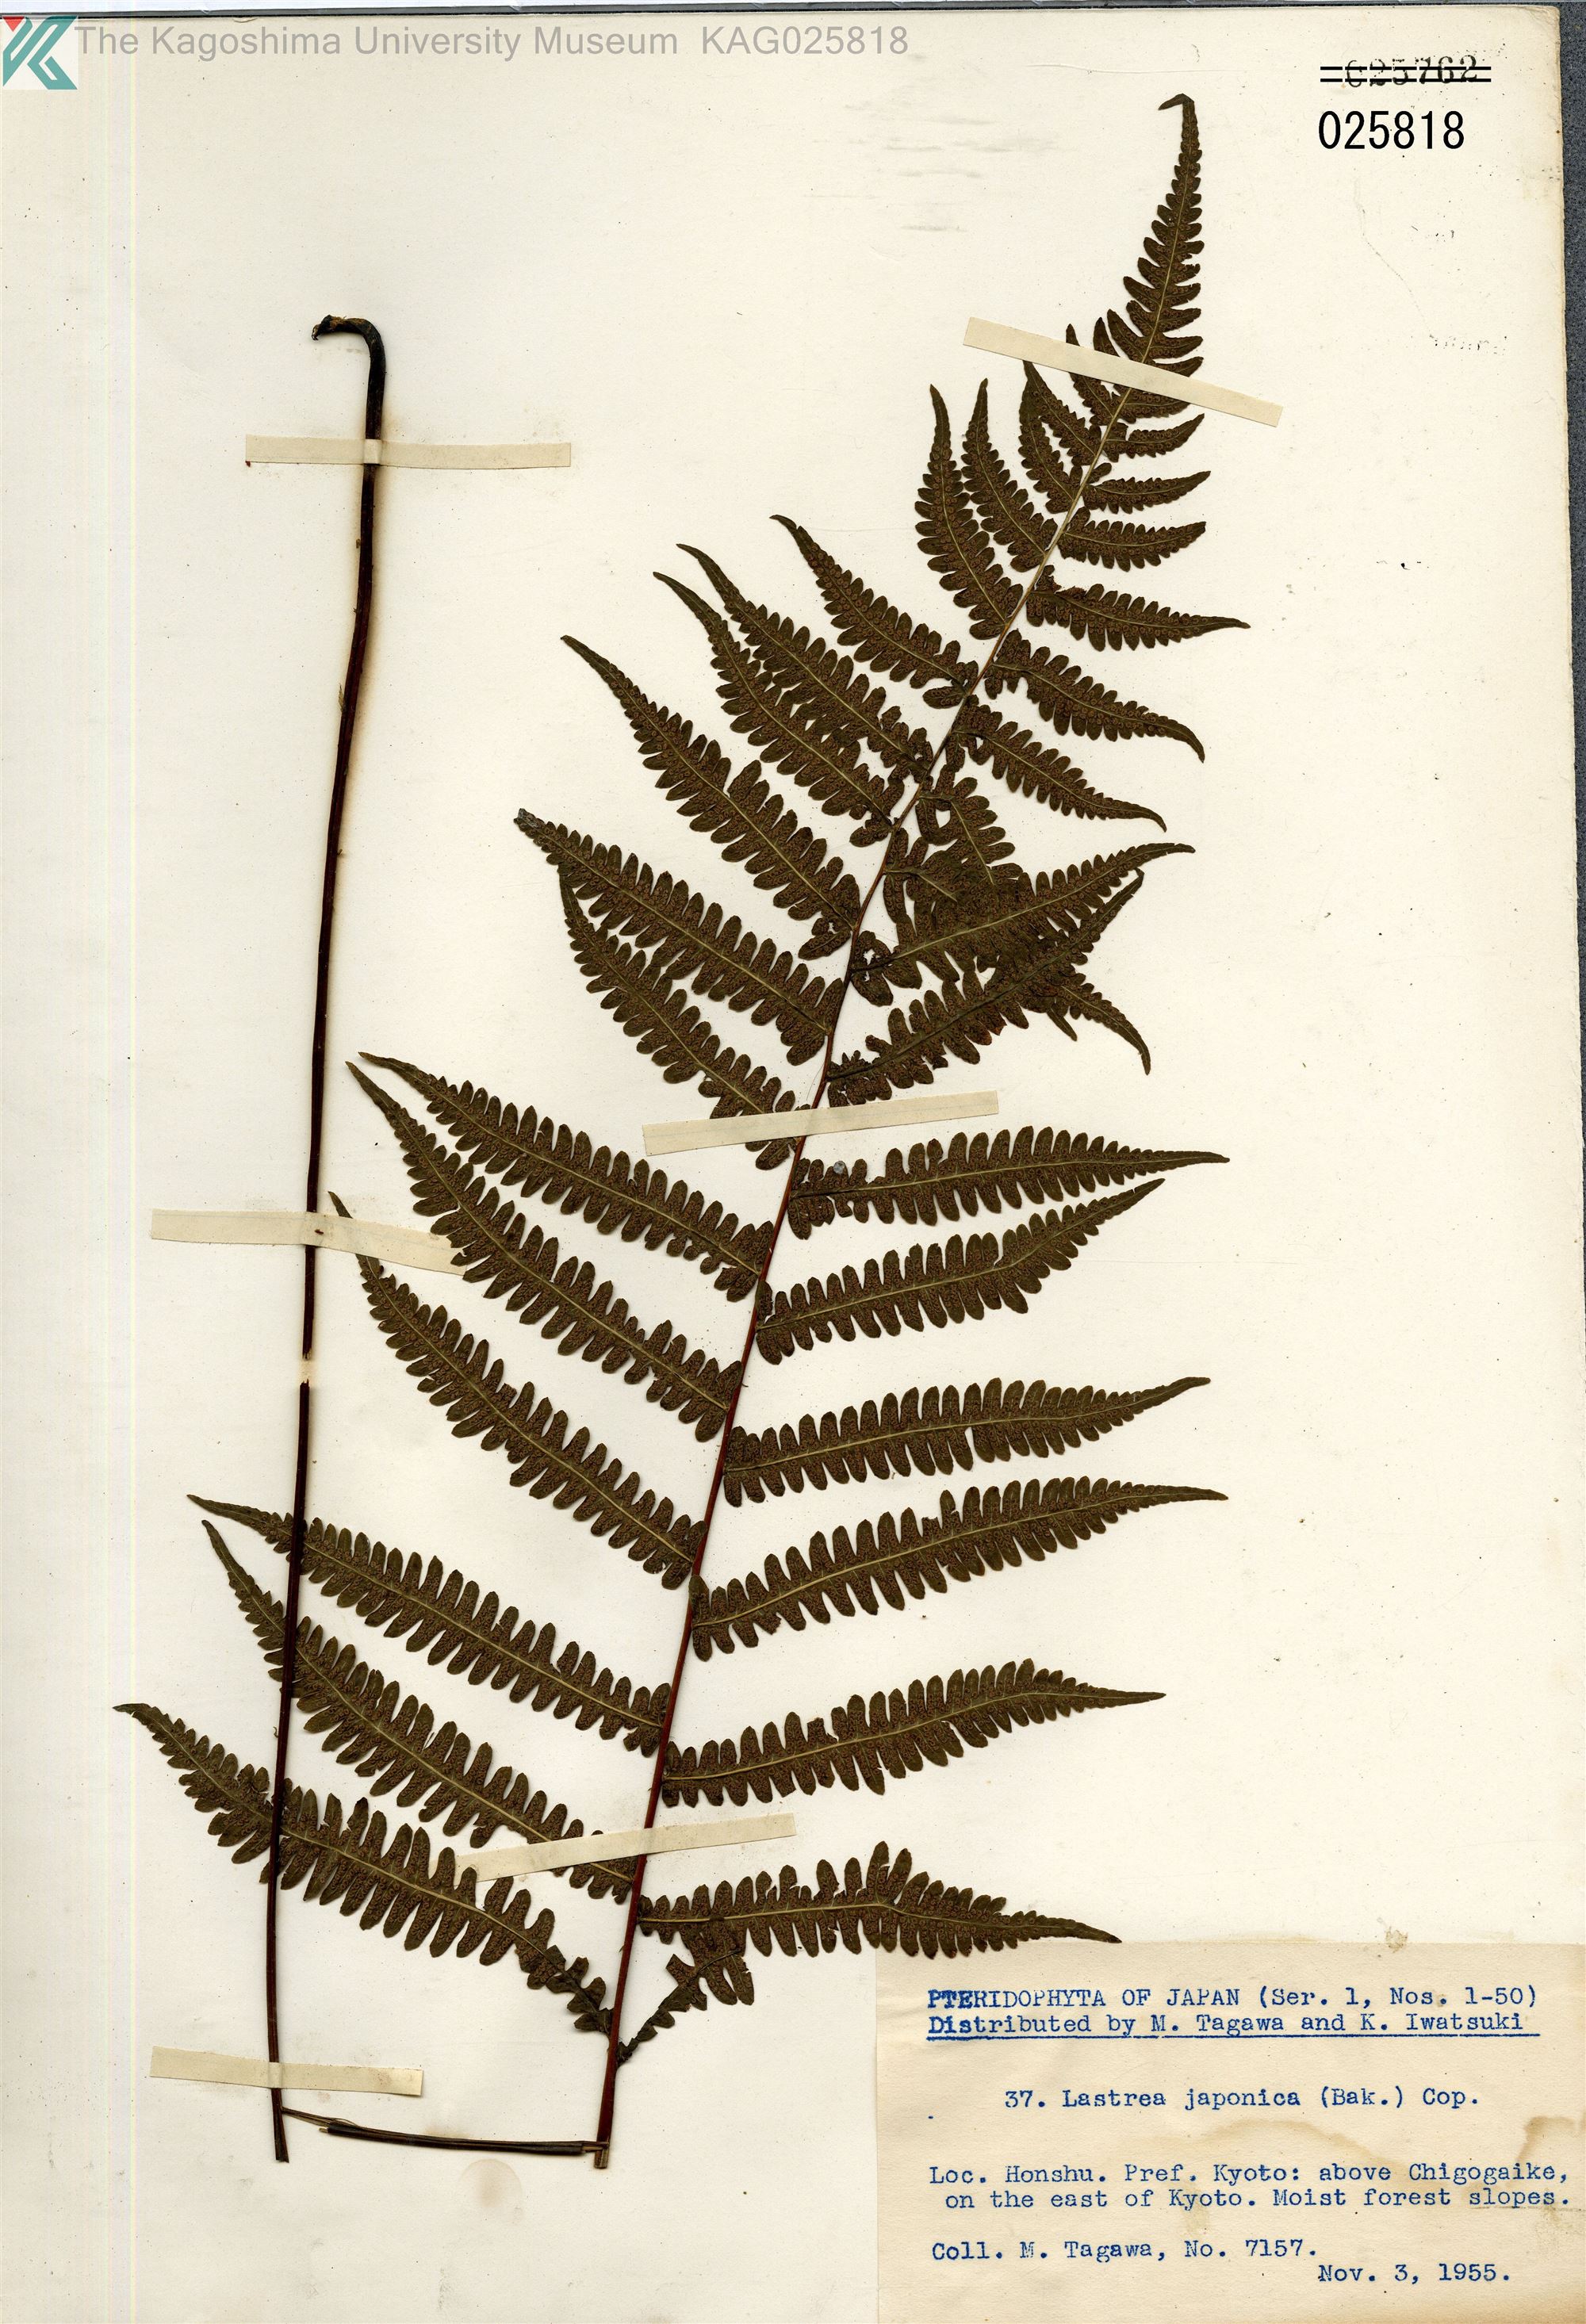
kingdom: Plantae
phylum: Tracheophyta
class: Polypodiopsida
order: Polypodiales
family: Thelypteridaceae
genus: Coryphopteris
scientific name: Coryphopteris japonica
